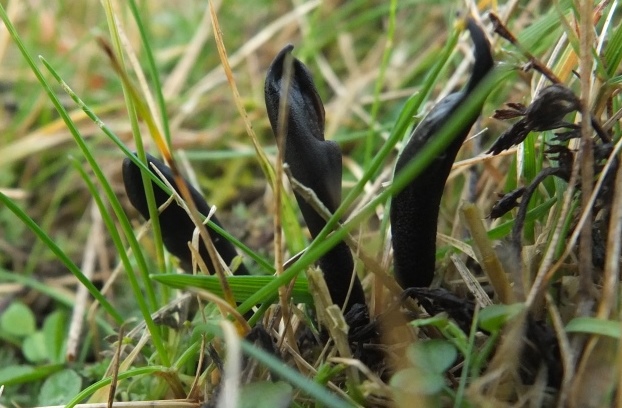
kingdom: Fungi
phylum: Ascomycota
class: Geoglossomycetes
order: Geoglossales
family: Geoglossaceae
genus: Hemileucoglossum
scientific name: Hemileucoglossum elongatum
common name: småsporet jordtunge
